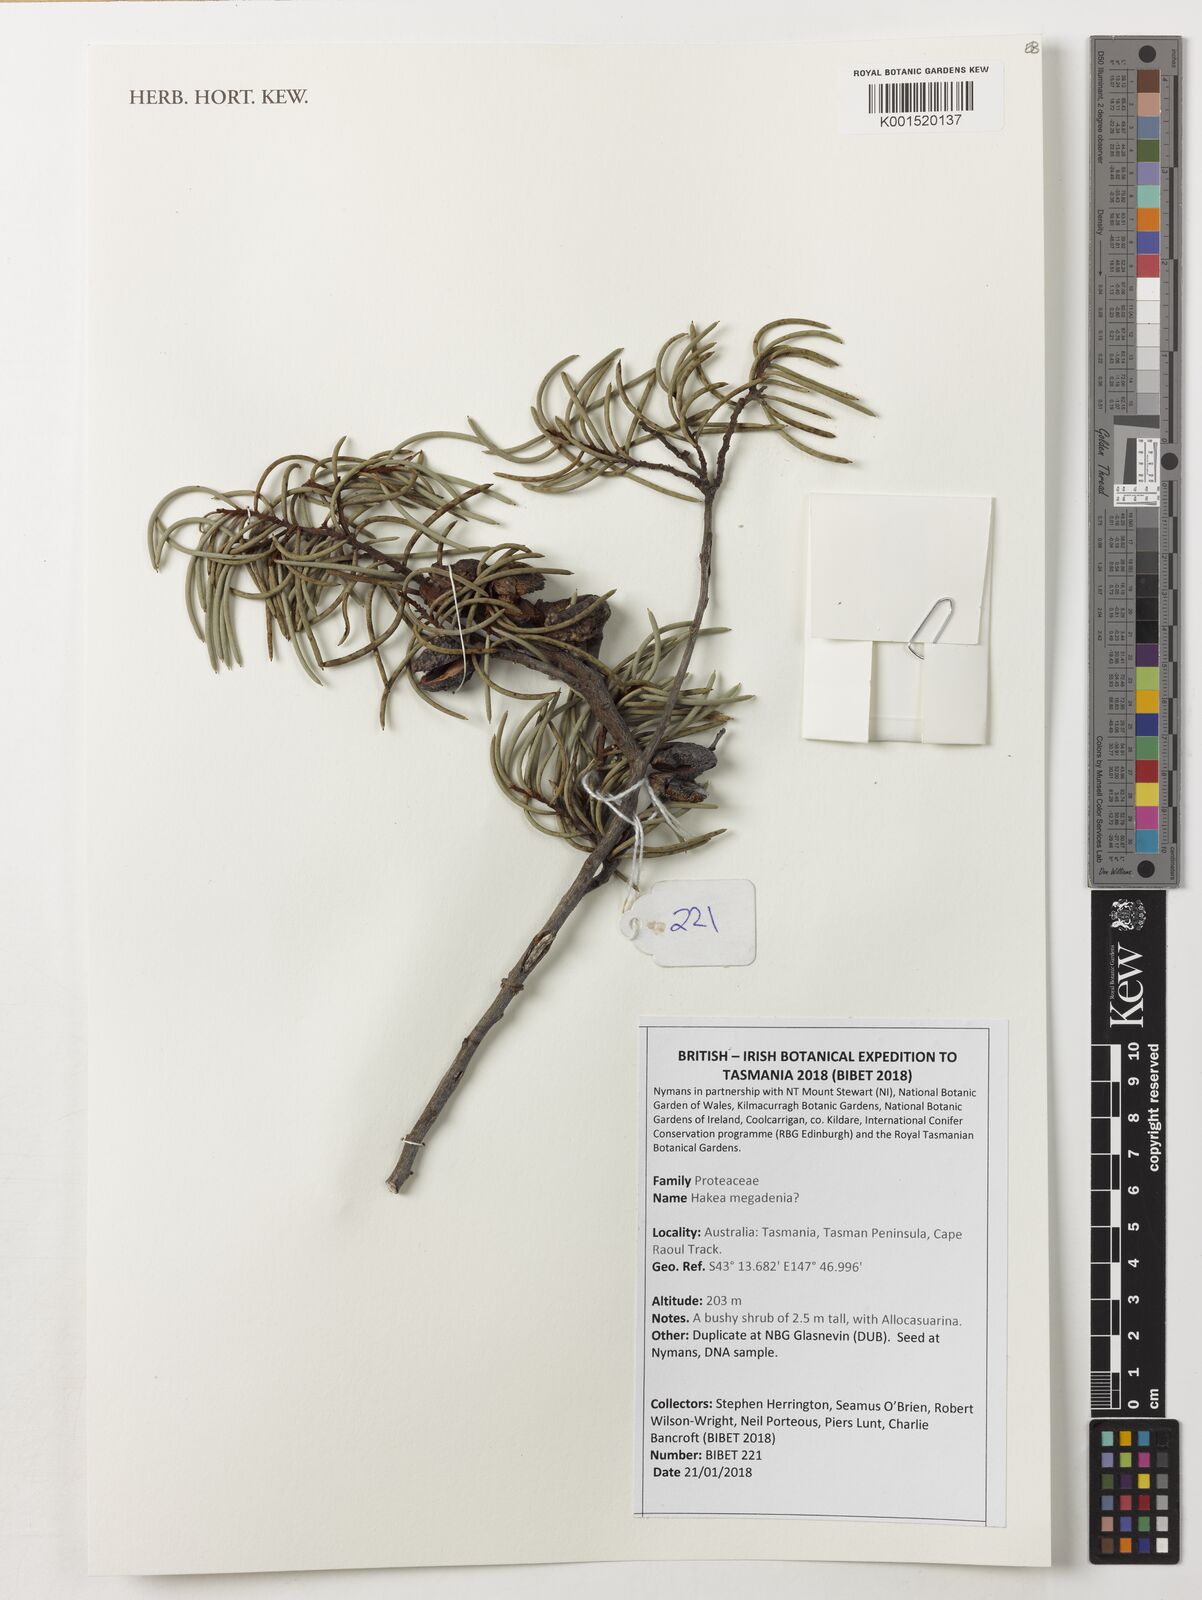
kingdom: Plantae
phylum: Tracheophyta
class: Magnoliopsida
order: Proteales
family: Proteaceae
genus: Hakea
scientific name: Hakea megadenia
